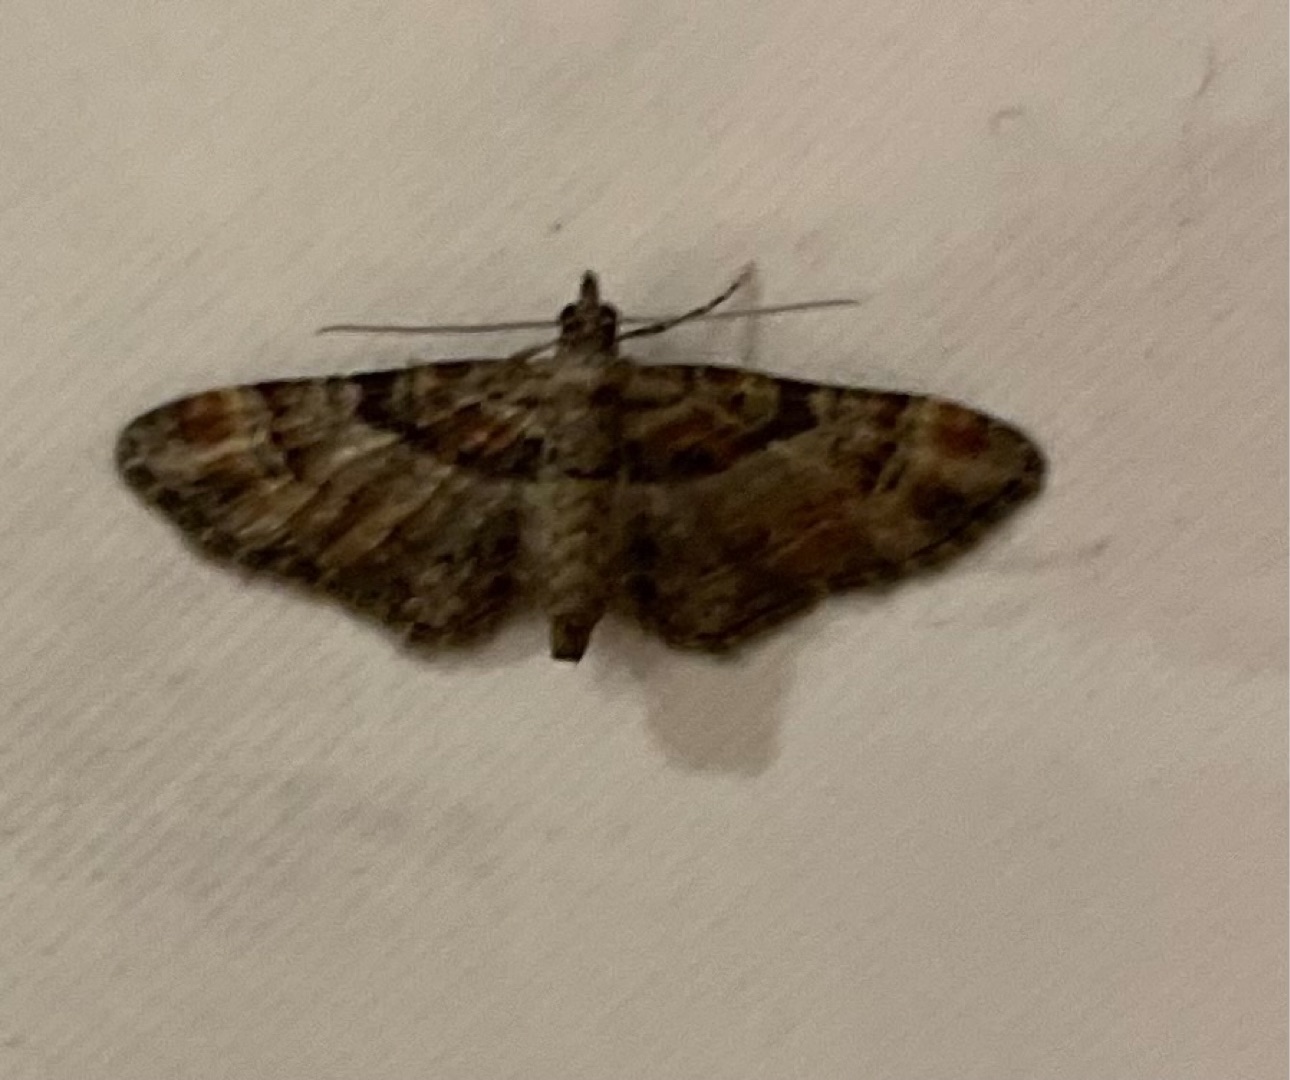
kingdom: Animalia
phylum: Arthropoda
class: Insecta
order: Lepidoptera
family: Geometridae
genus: Gymnoscelis
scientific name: Gymnoscelis rufifasciata
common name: Rødbåndet dværgmåler
